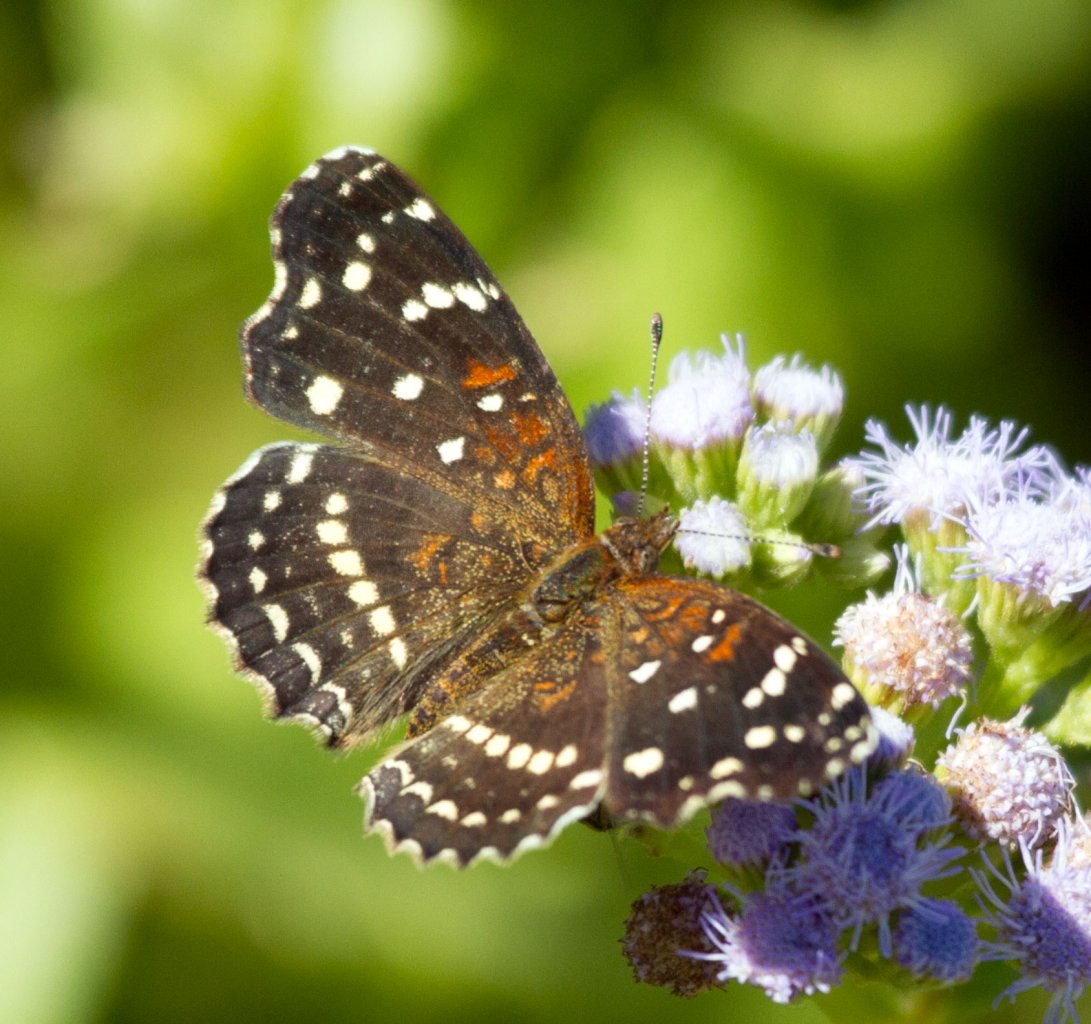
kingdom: Animalia
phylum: Arthropoda
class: Insecta
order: Lepidoptera
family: Nymphalidae
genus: Anthanassa
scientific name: Anthanassa texana
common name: Texan Crescent
